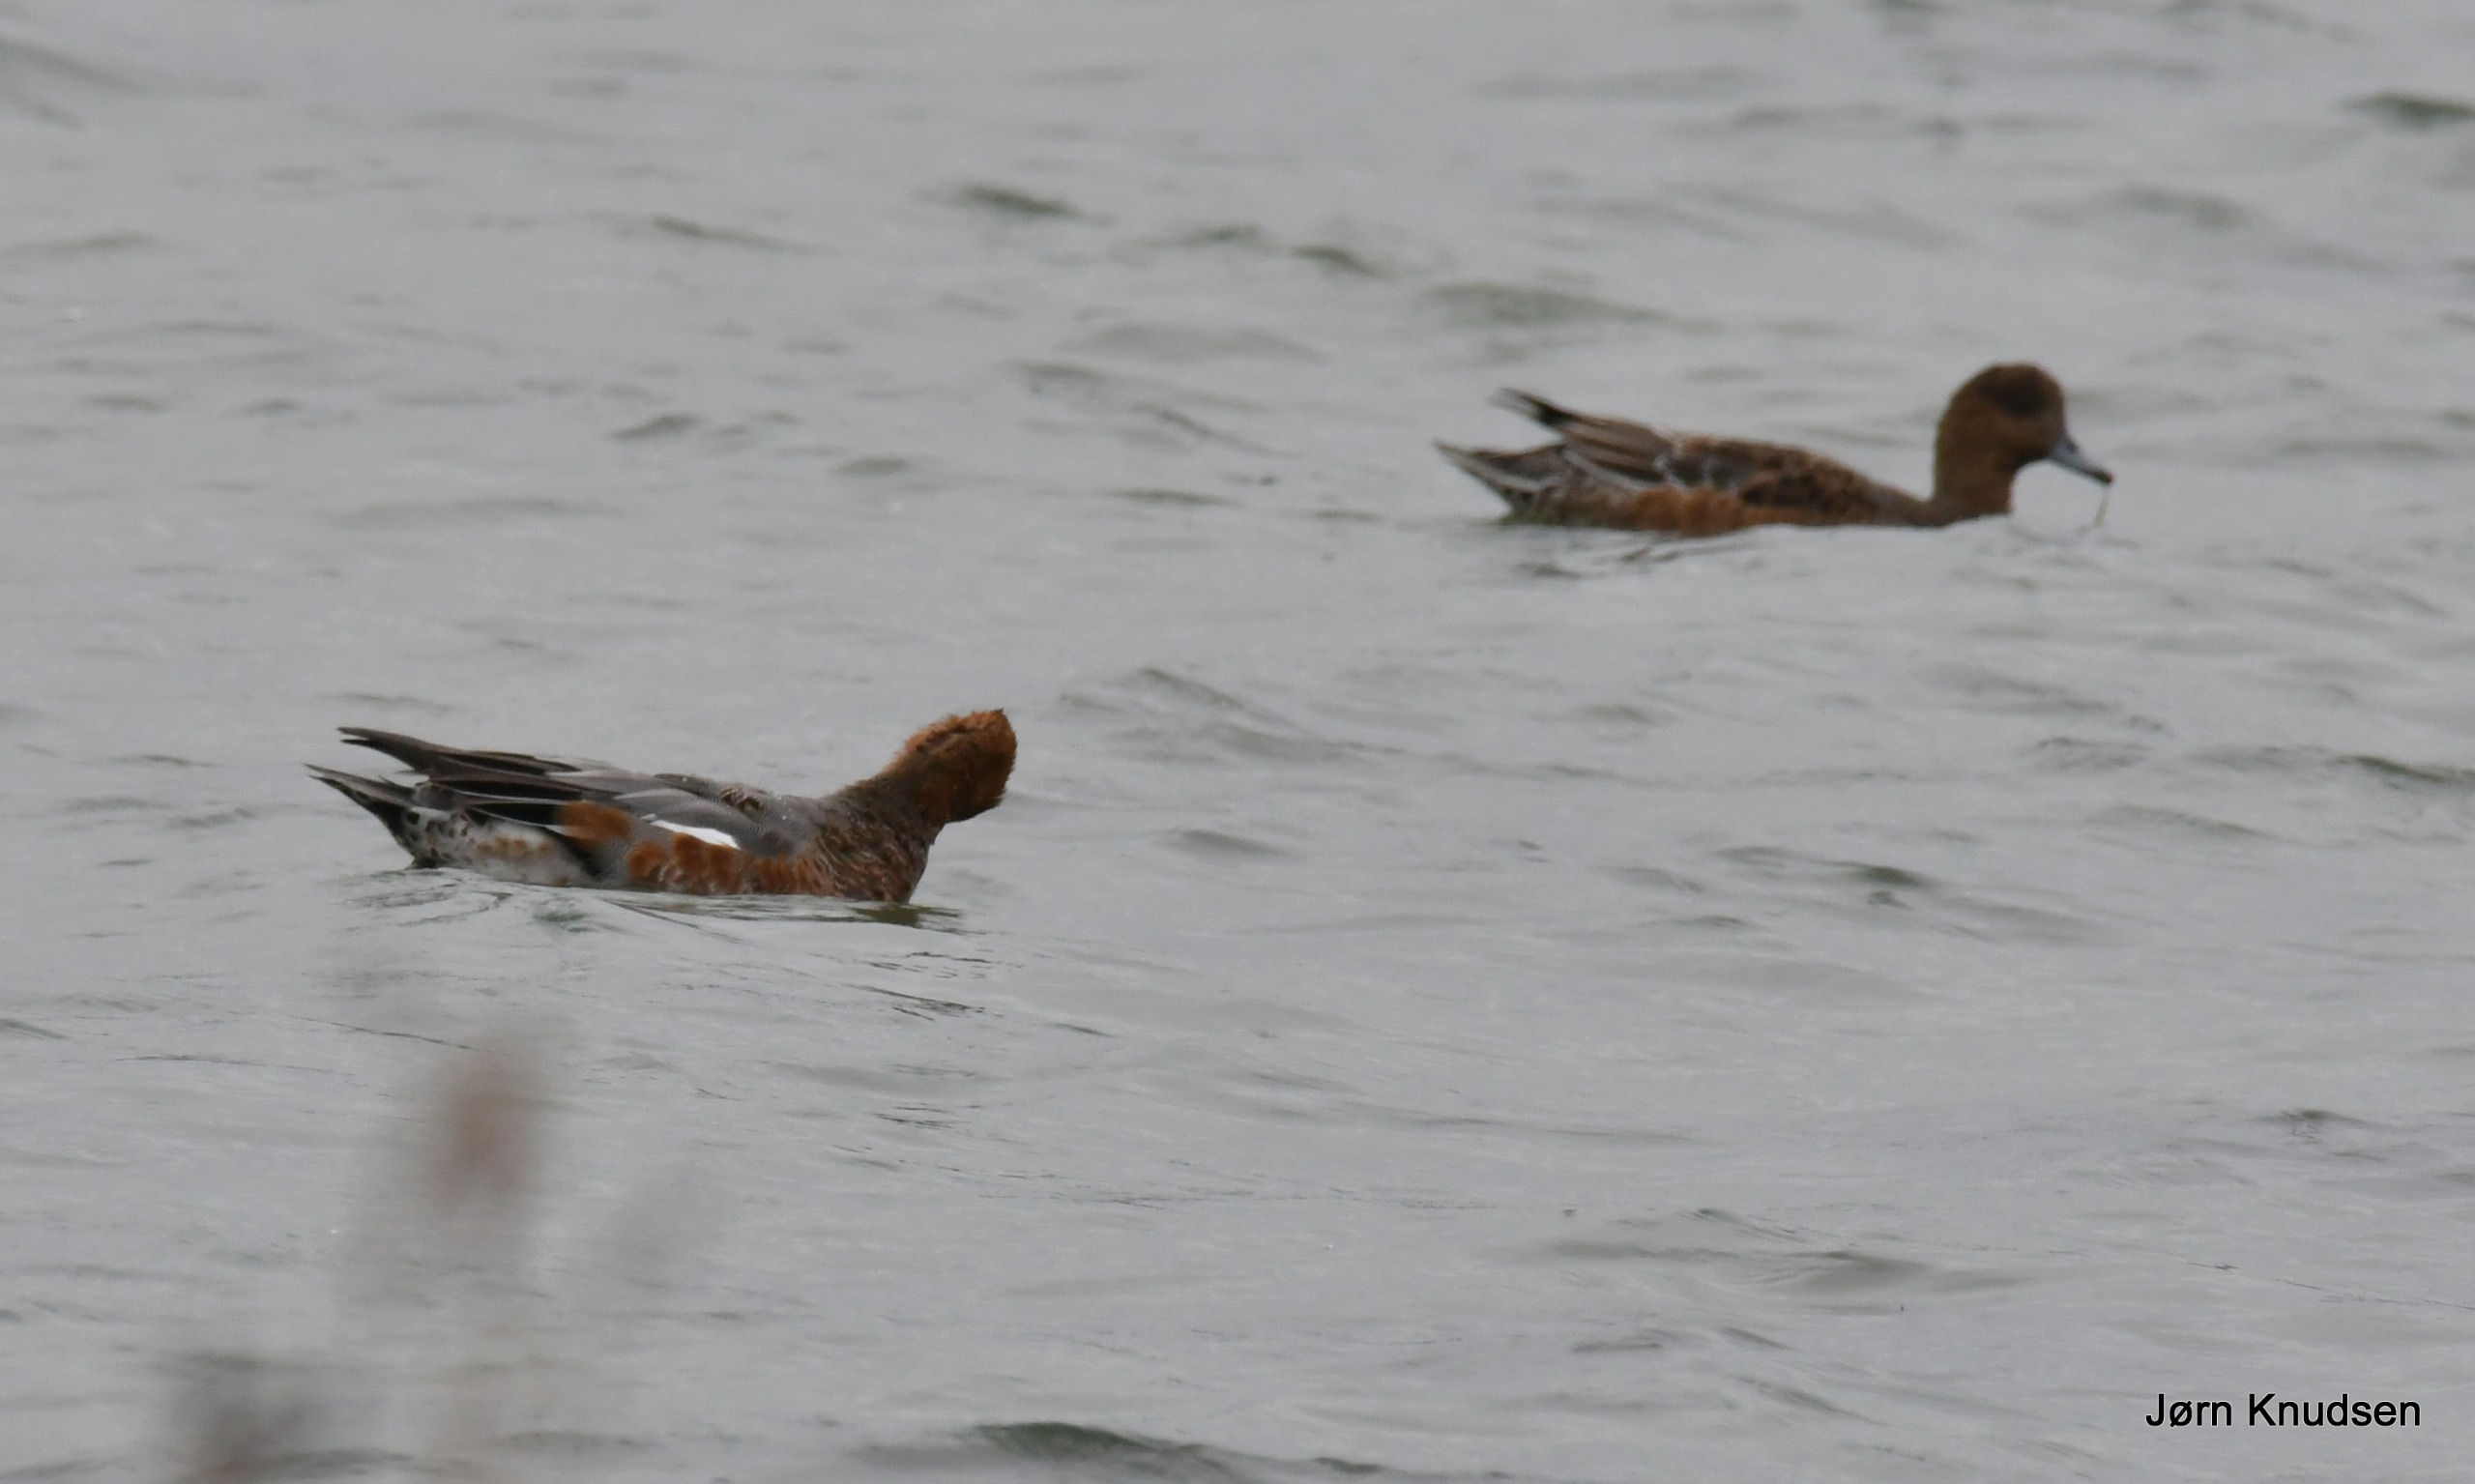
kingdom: Animalia
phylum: Chordata
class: Aves
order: Anseriformes
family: Anatidae
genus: Mareca
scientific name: Mareca penelope
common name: Pibeand
